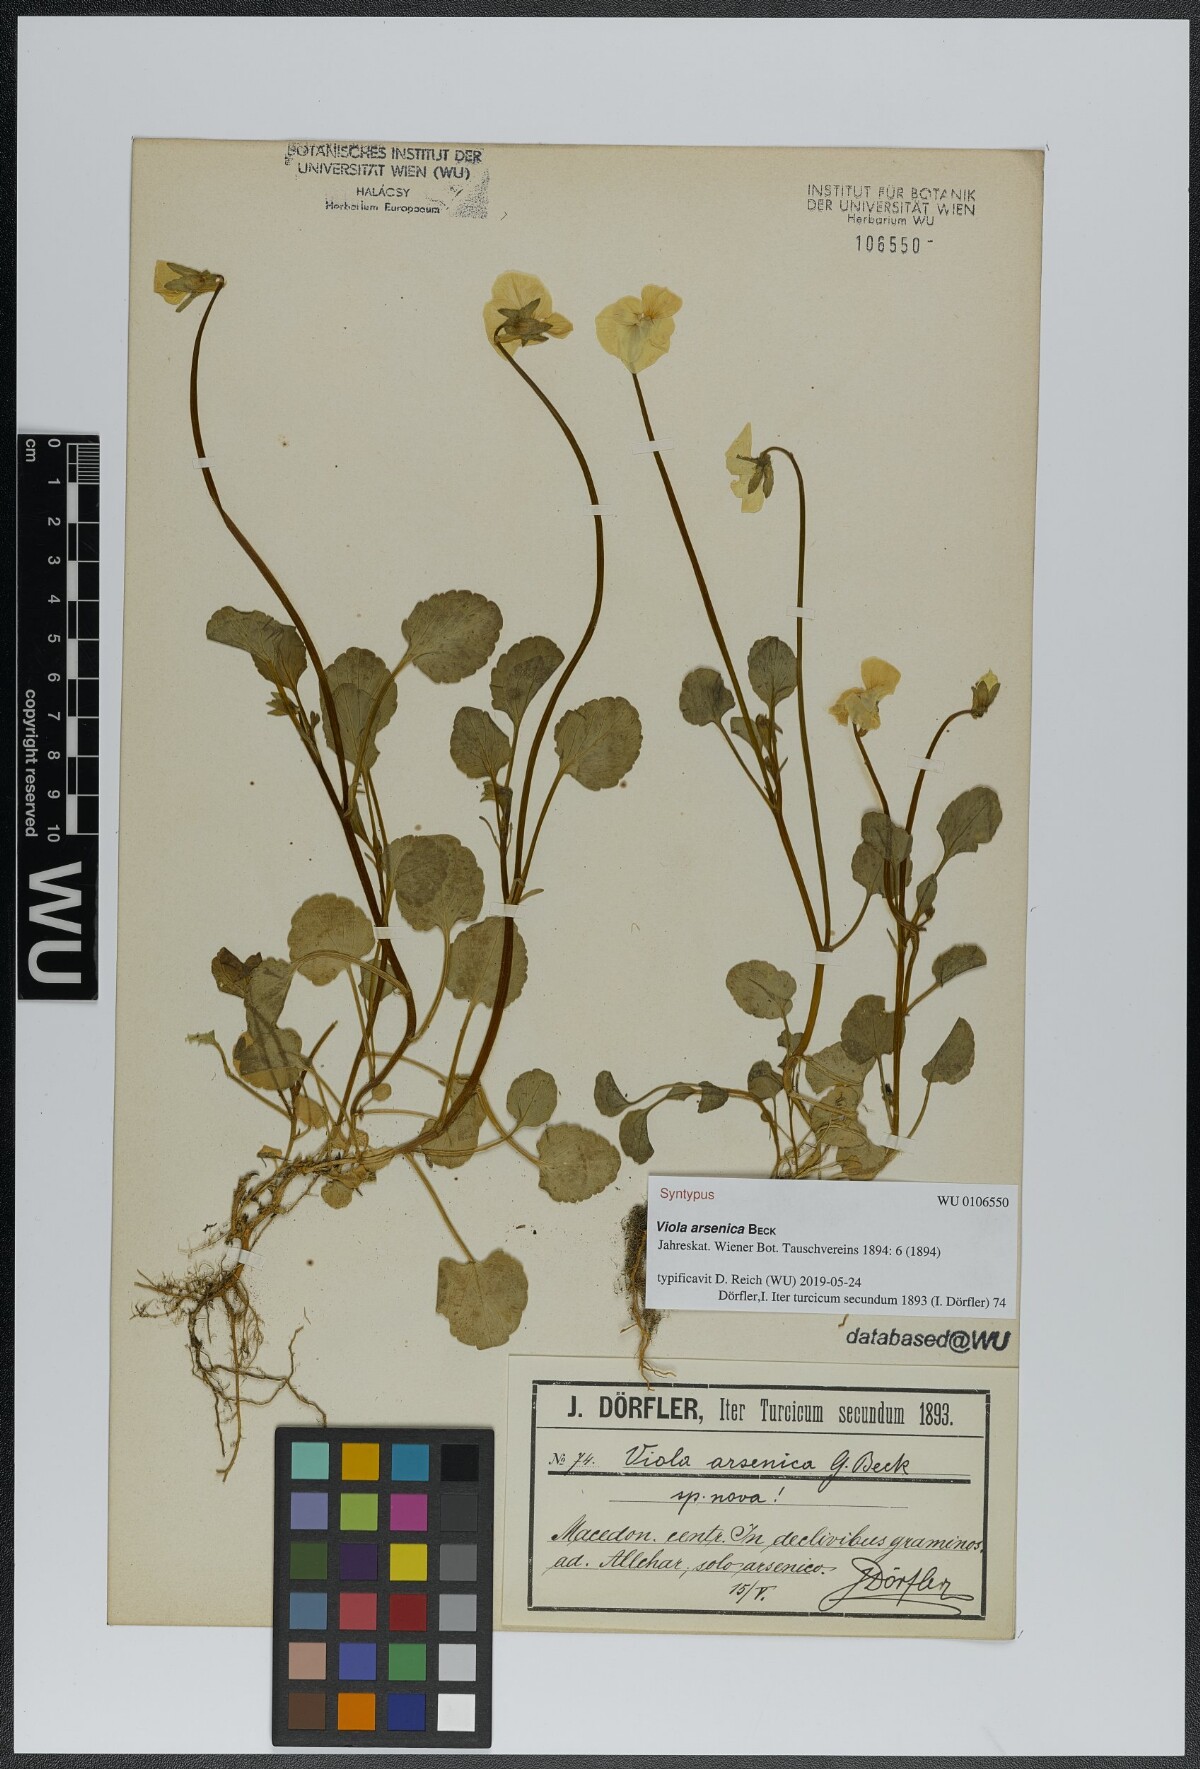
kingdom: Plantae
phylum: Tracheophyta
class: Magnoliopsida
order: Malpighiales
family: Violaceae
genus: Viola
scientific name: Viola arsenica
